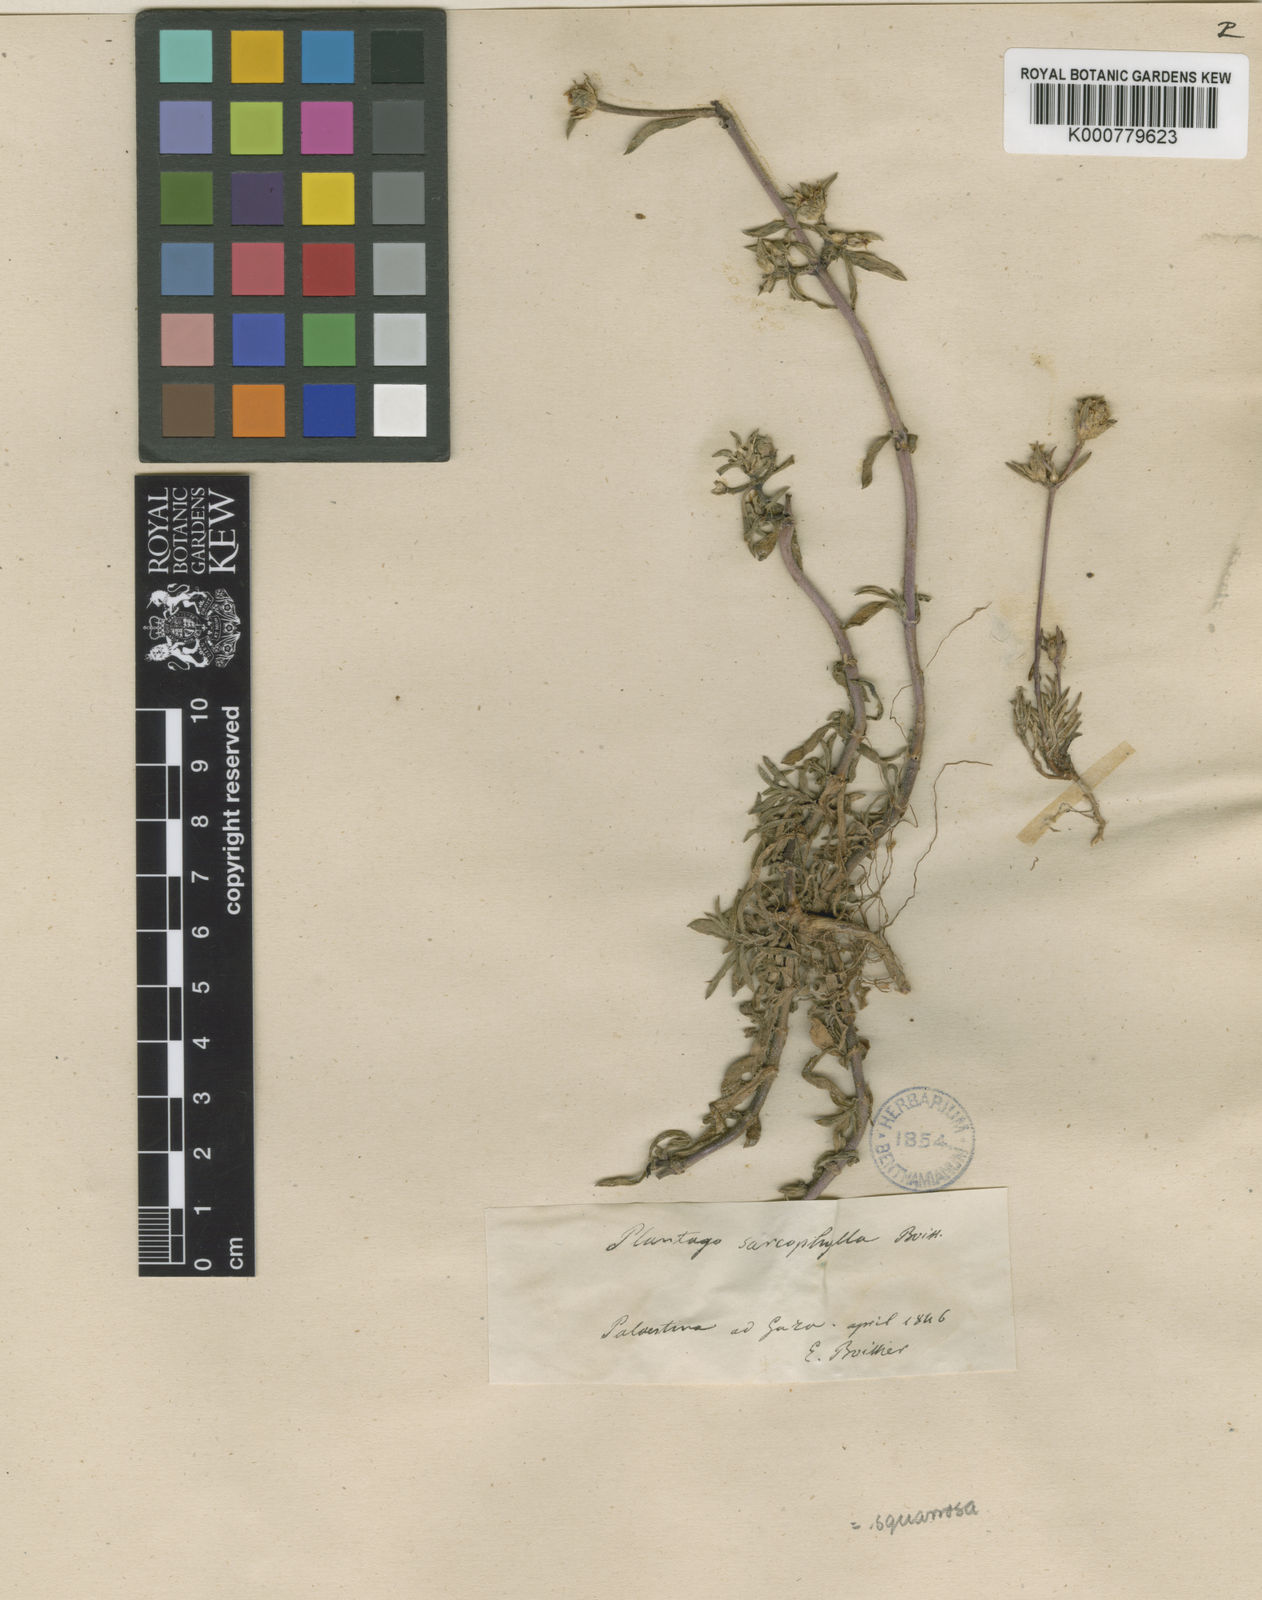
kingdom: Plantae
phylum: Tracheophyta
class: Magnoliopsida
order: Lamiales
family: Plantaginaceae
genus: Plantago
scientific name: Plantago squarrosa
